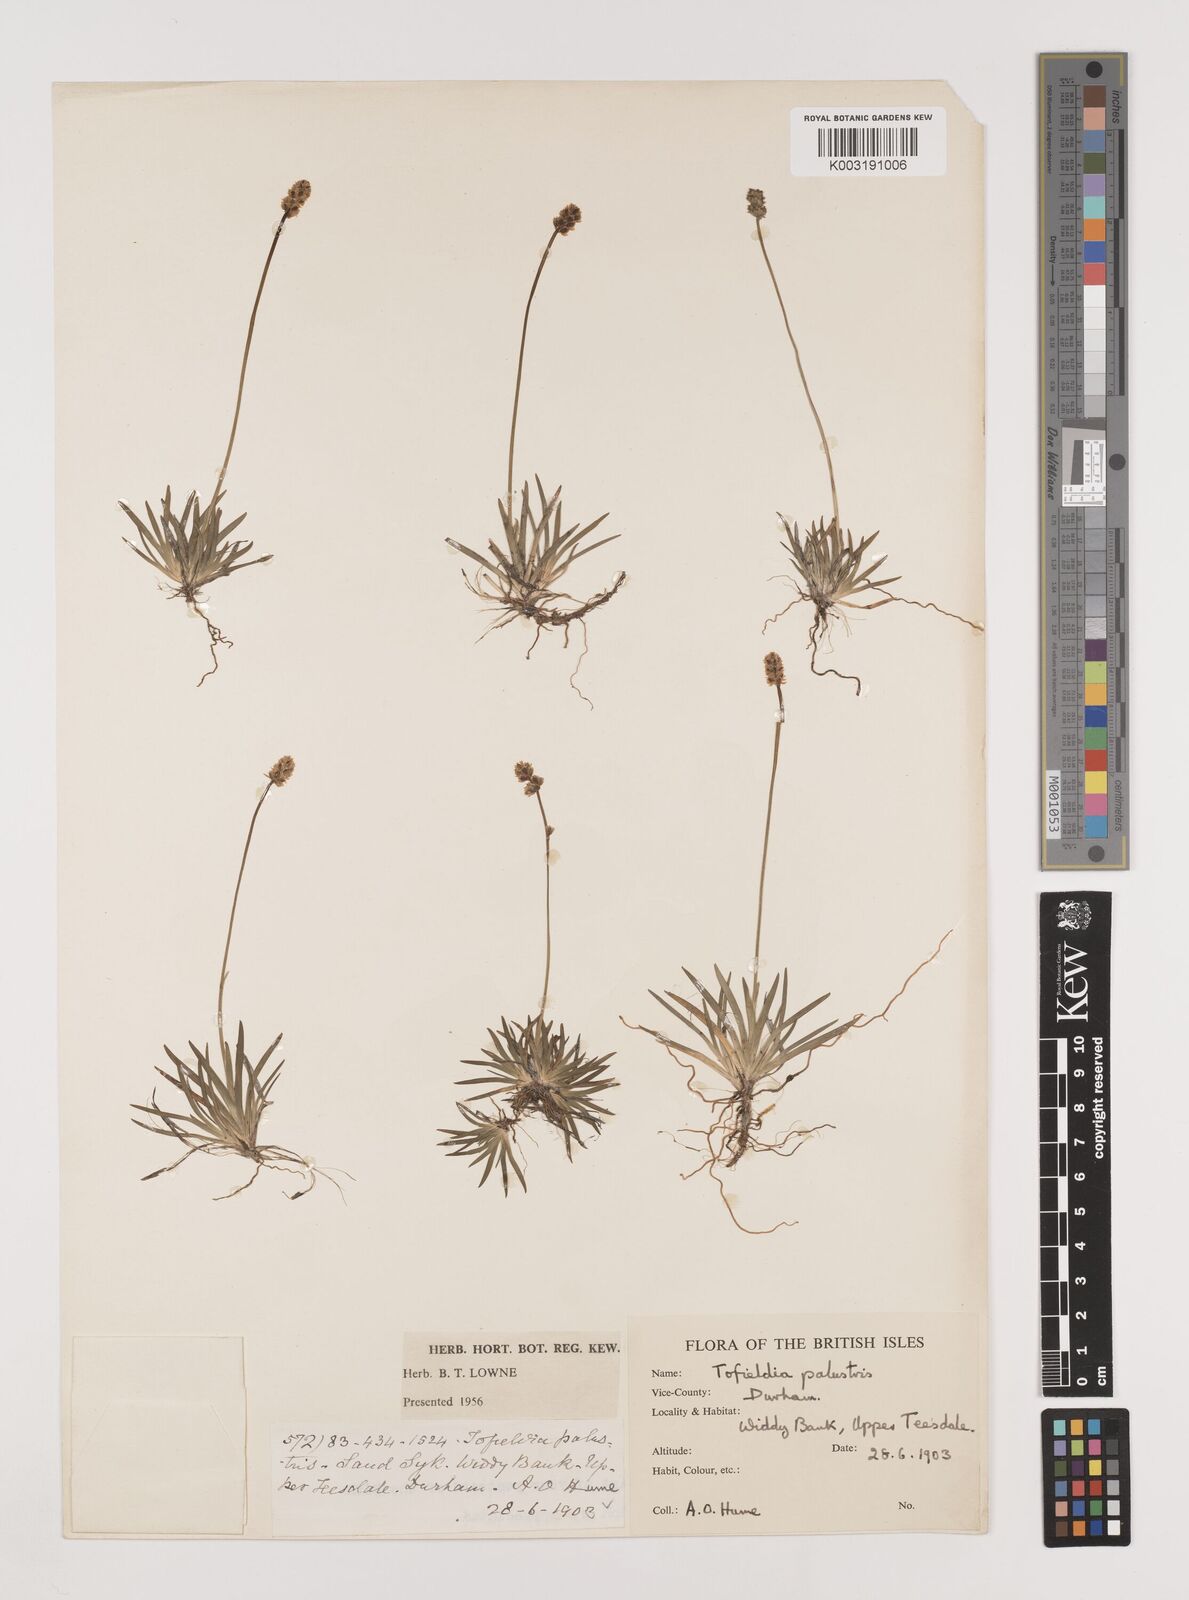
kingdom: Plantae
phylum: Tracheophyta
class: Liliopsida
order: Alismatales
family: Tofieldiaceae
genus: Tofieldia
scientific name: Tofieldia pusilla
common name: Scottish false asphodel
